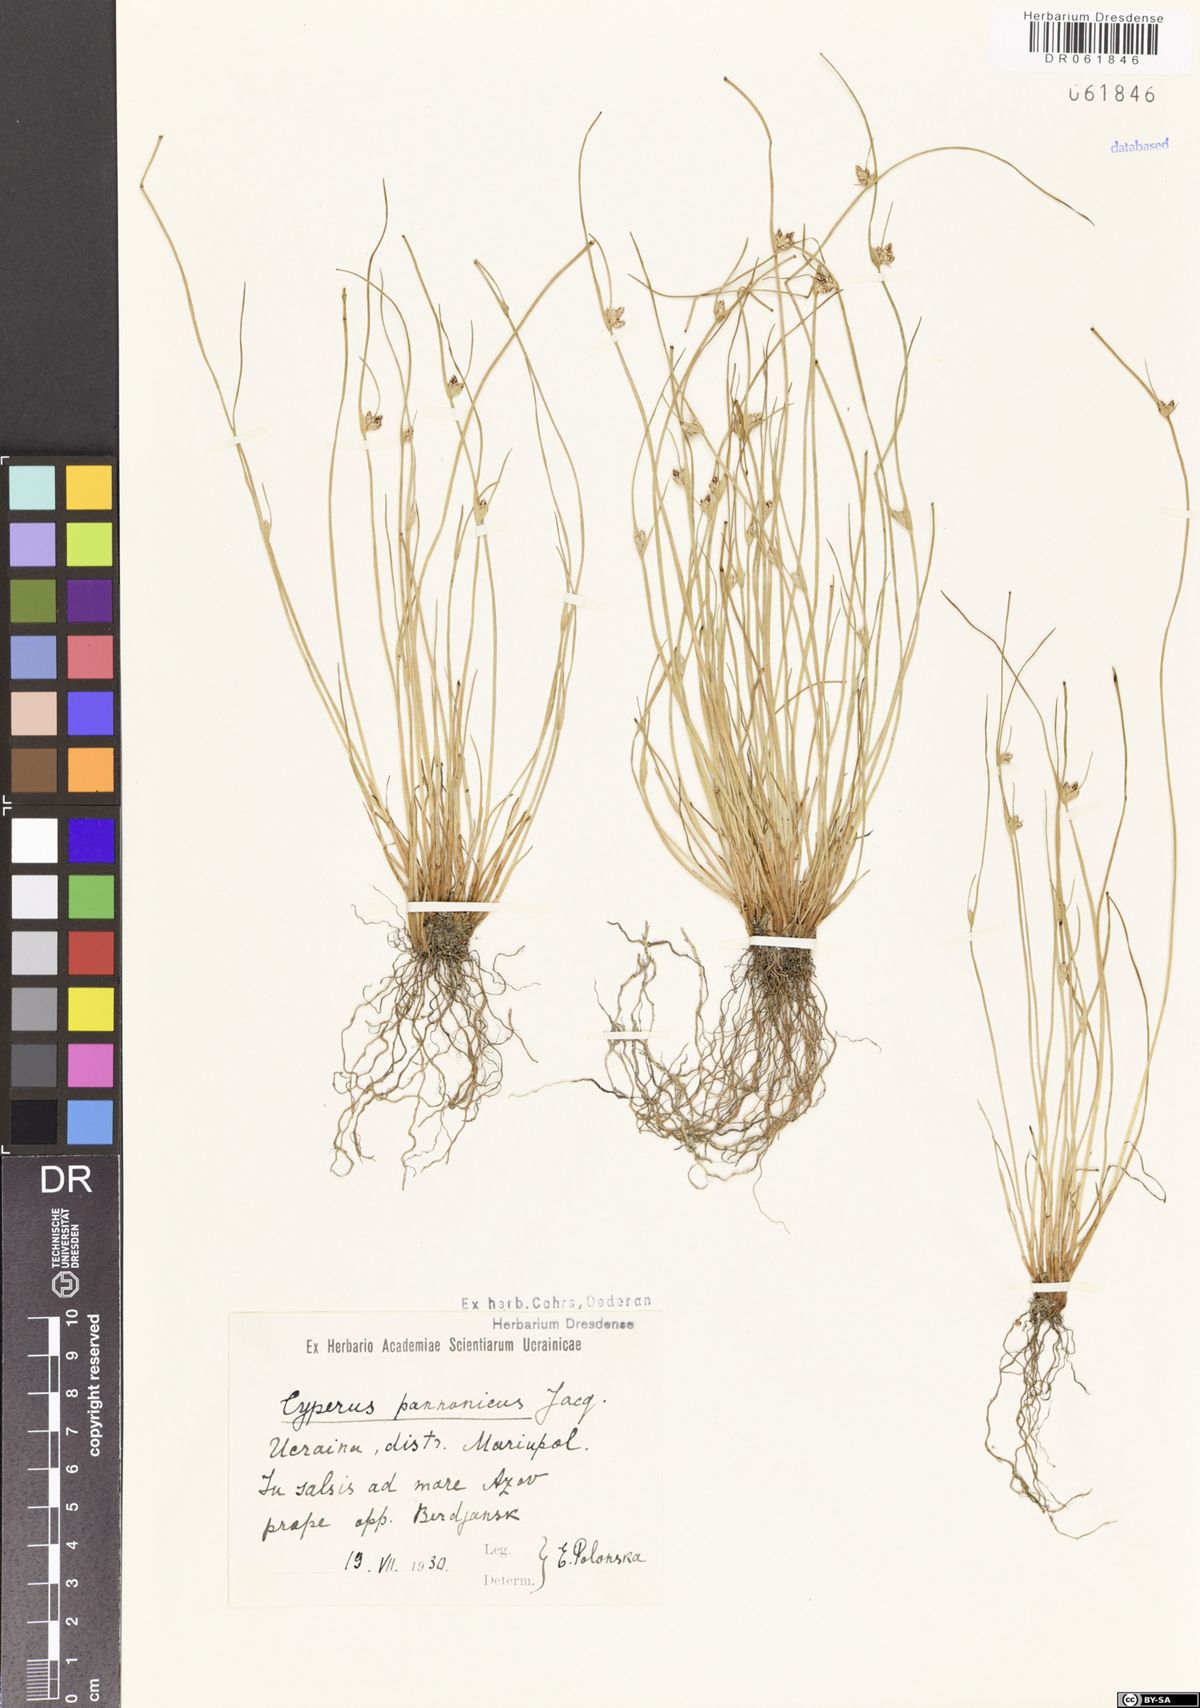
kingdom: Plantae
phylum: Tracheophyta
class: Liliopsida
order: Poales
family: Cyperaceae
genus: Cyperus
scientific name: Cyperus pannonicus
